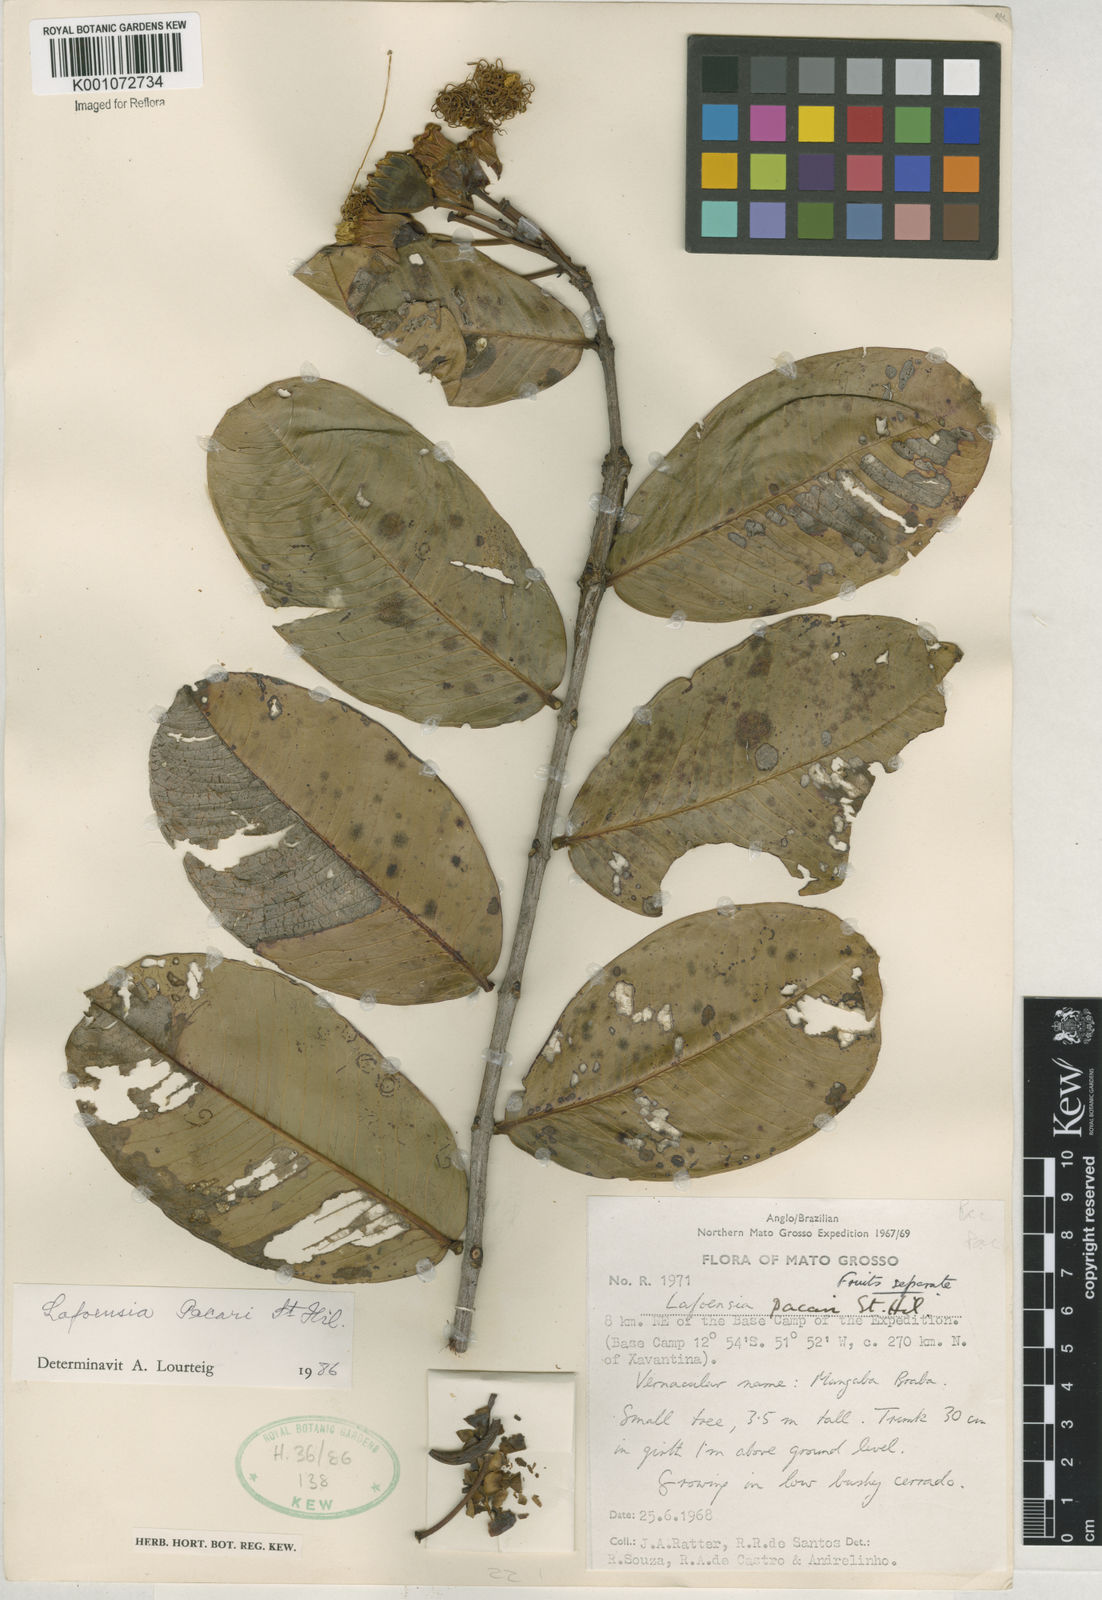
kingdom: Plantae
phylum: Tracheophyta
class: Magnoliopsida
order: Myrtales
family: Lythraceae
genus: Lafoensia
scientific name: Lafoensia pacari
